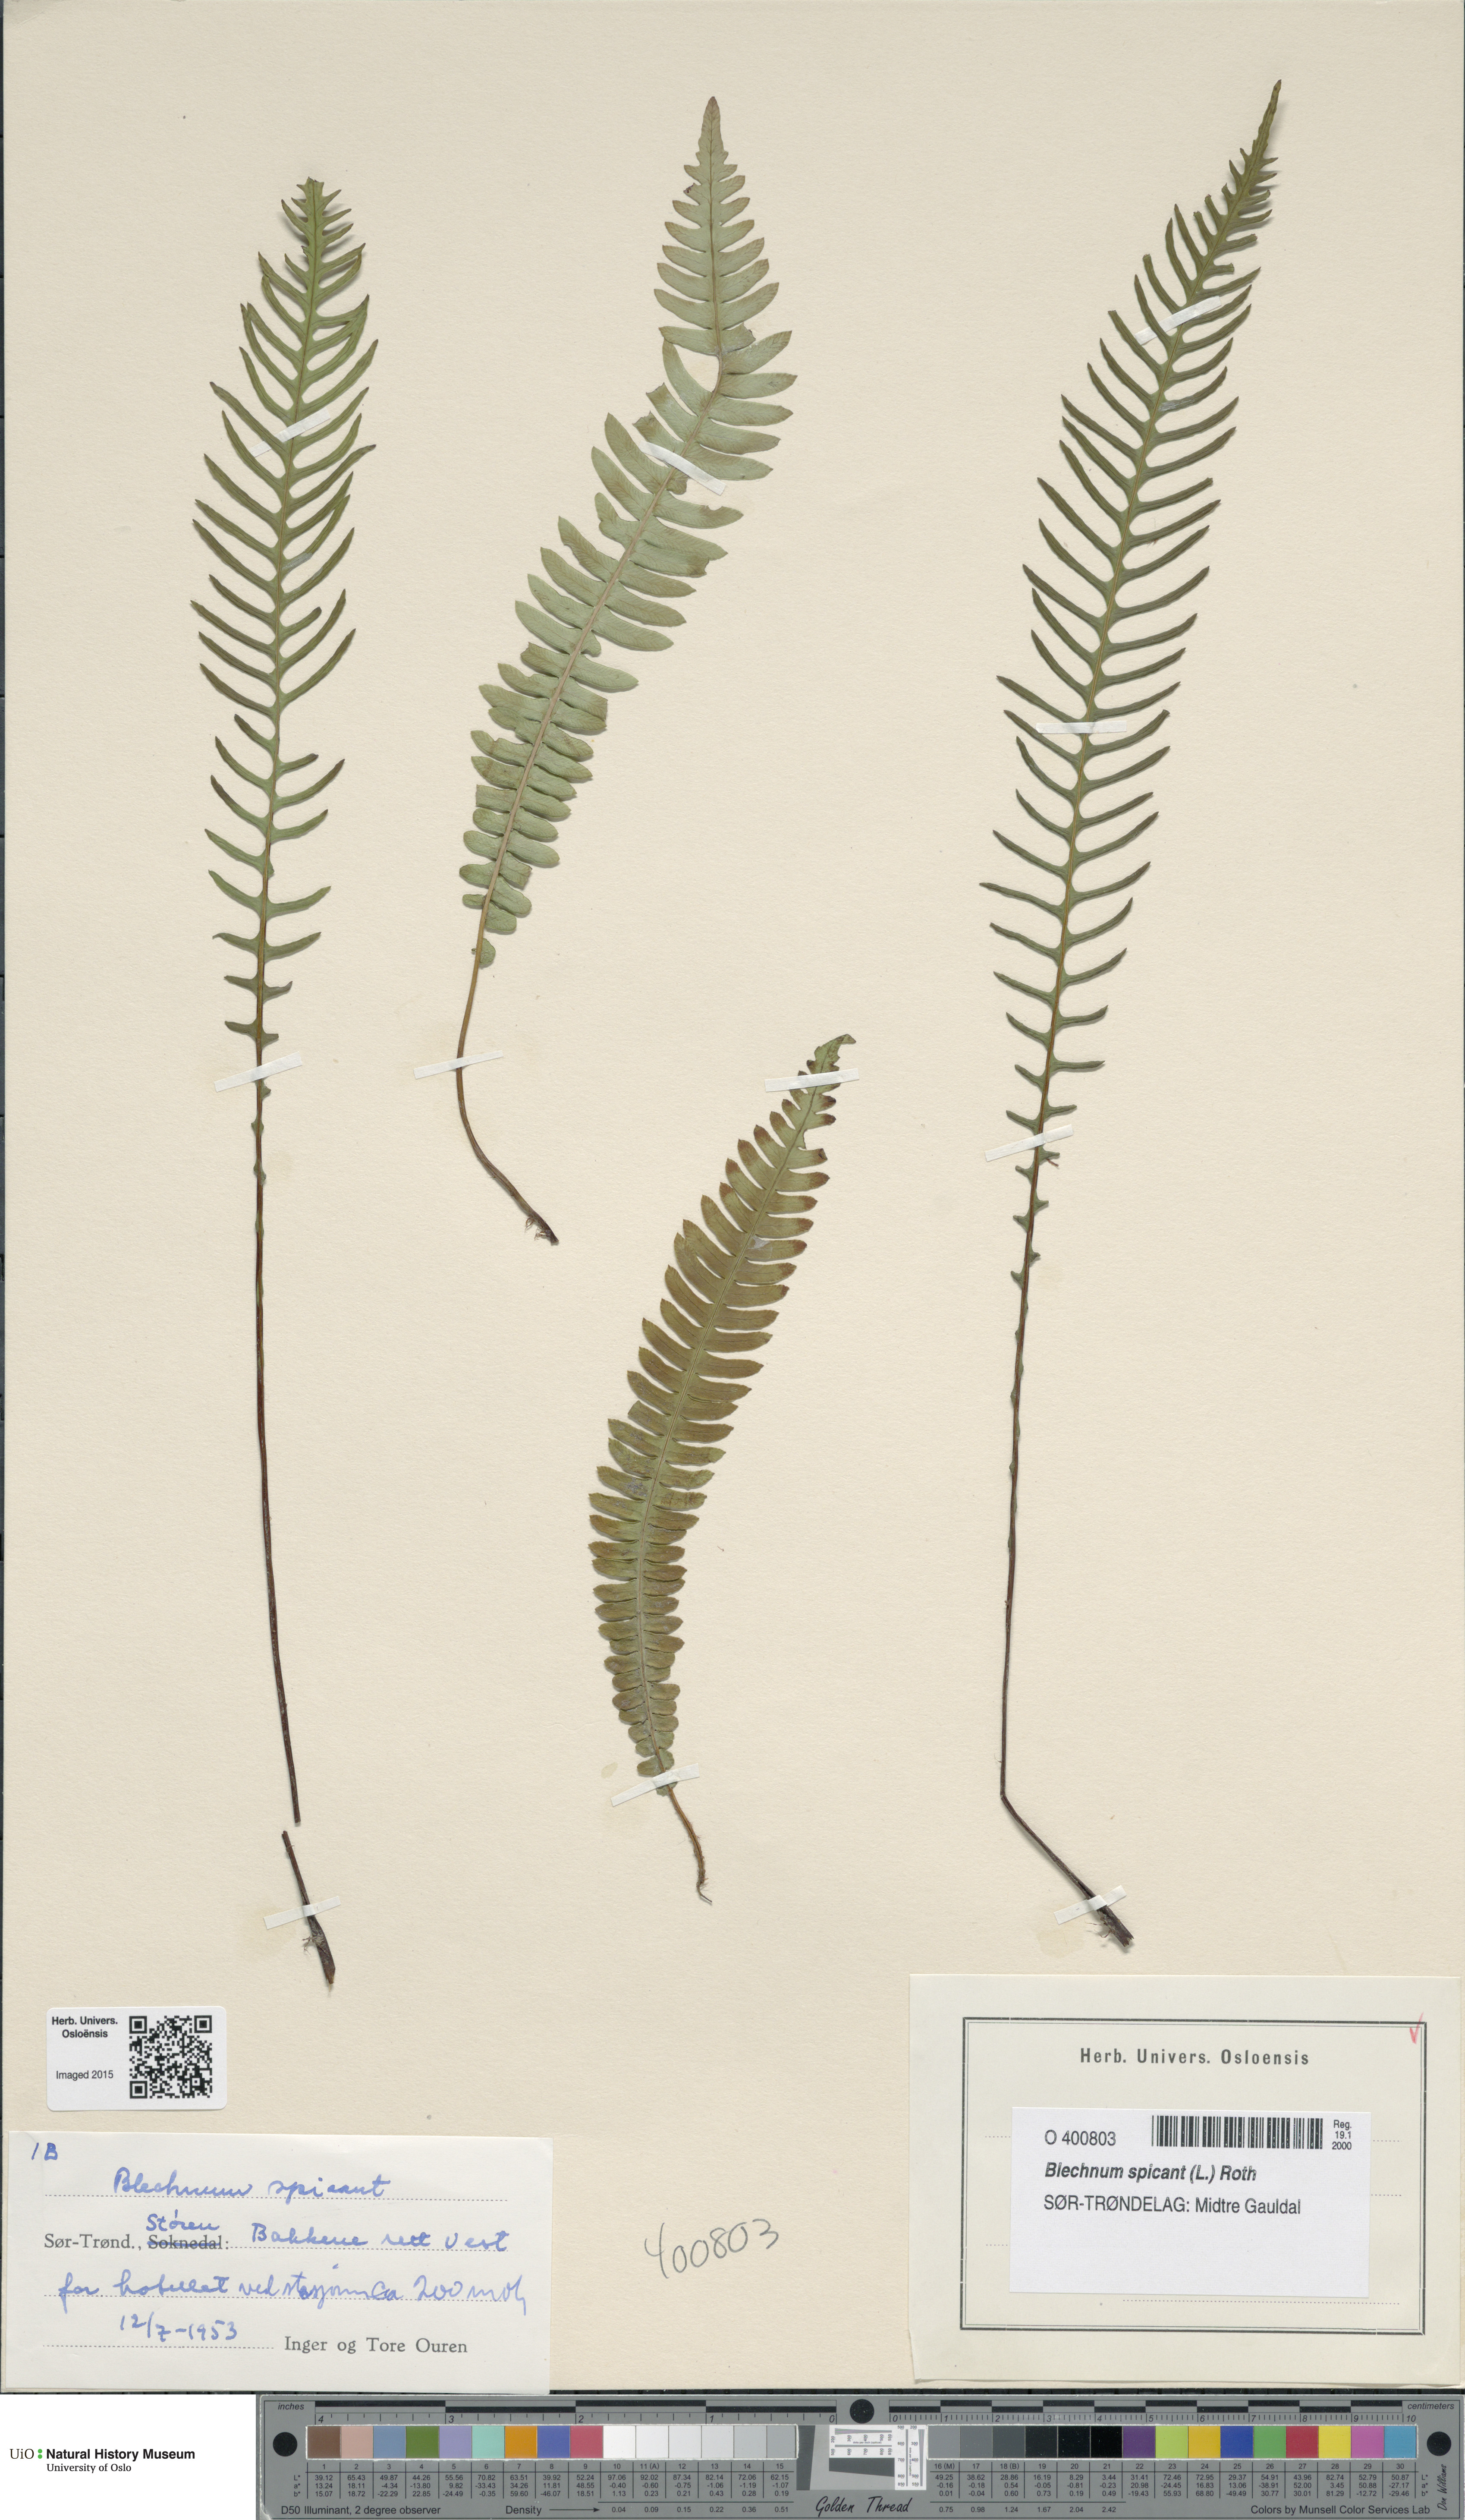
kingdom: Plantae
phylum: Tracheophyta
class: Polypodiopsida
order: Polypodiales
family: Blechnaceae
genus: Struthiopteris
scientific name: Struthiopteris spicant
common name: Deer fern
